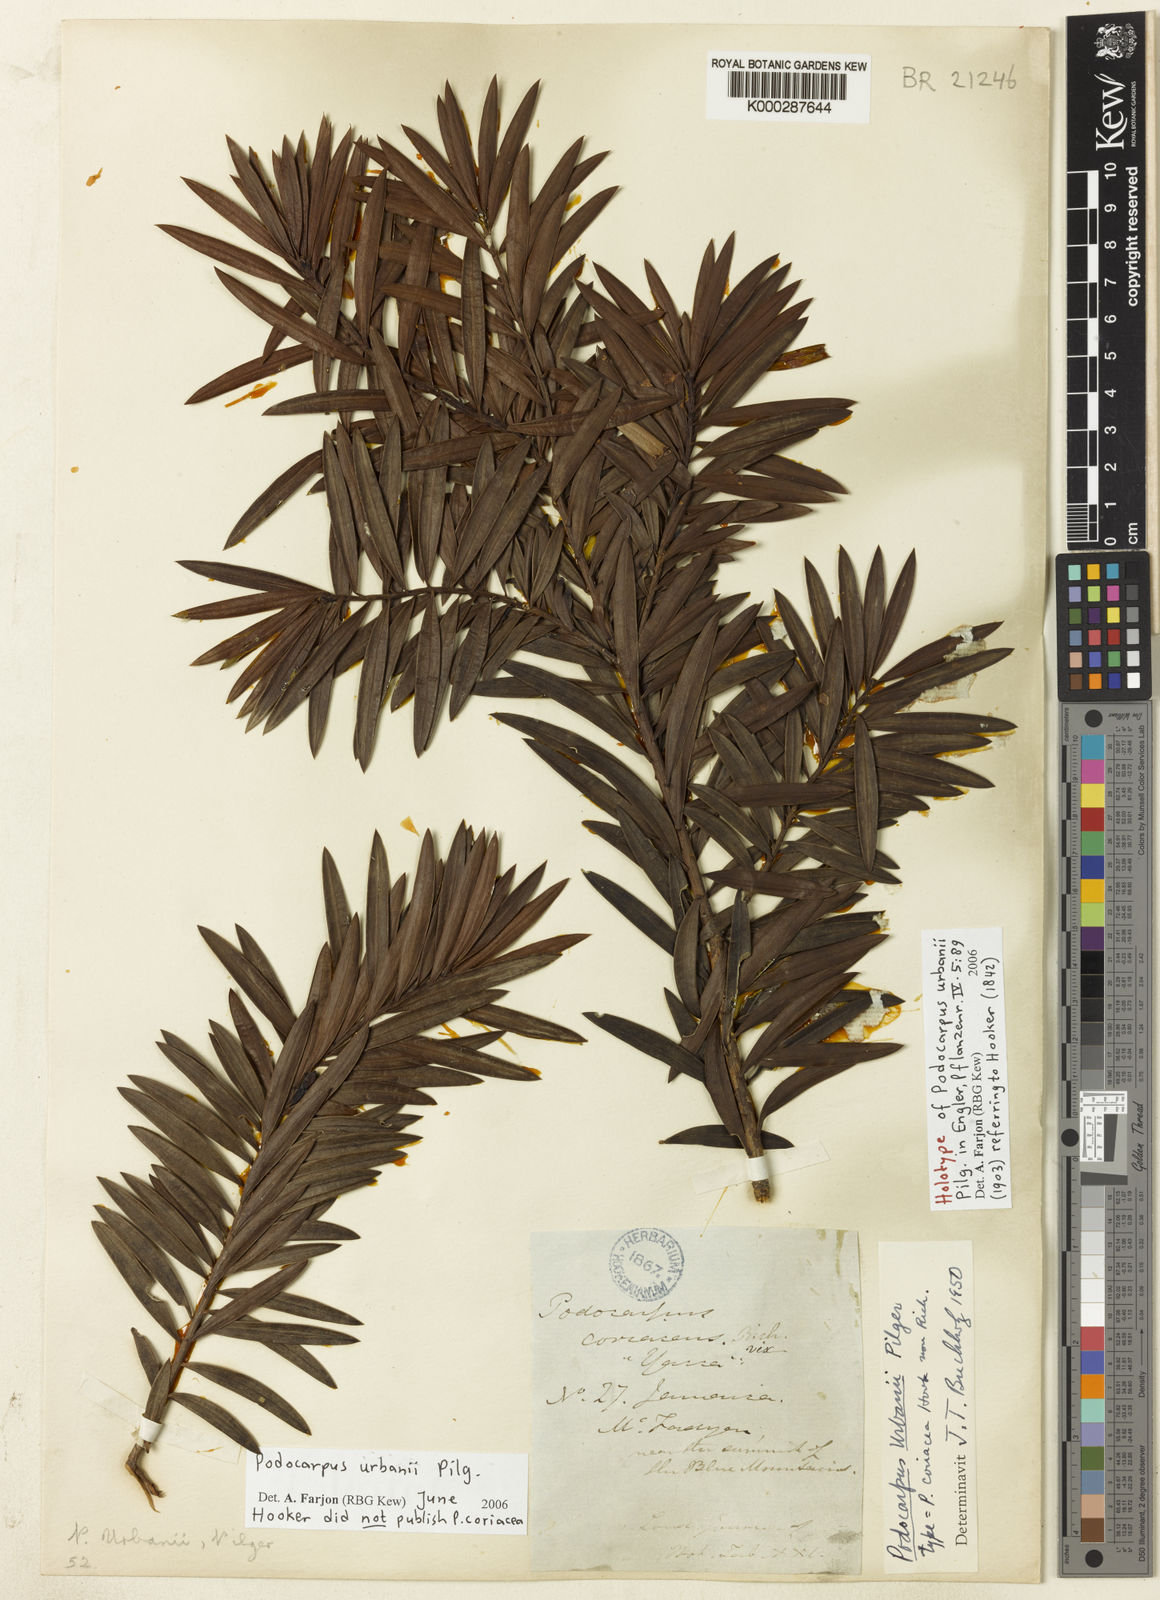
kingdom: Plantae
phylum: Tracheophyta
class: Pinopsida
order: Pinales
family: Podocarpaceae
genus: Podocarpus
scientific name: Podocarpus urbanii
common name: Blue mountain yacca
